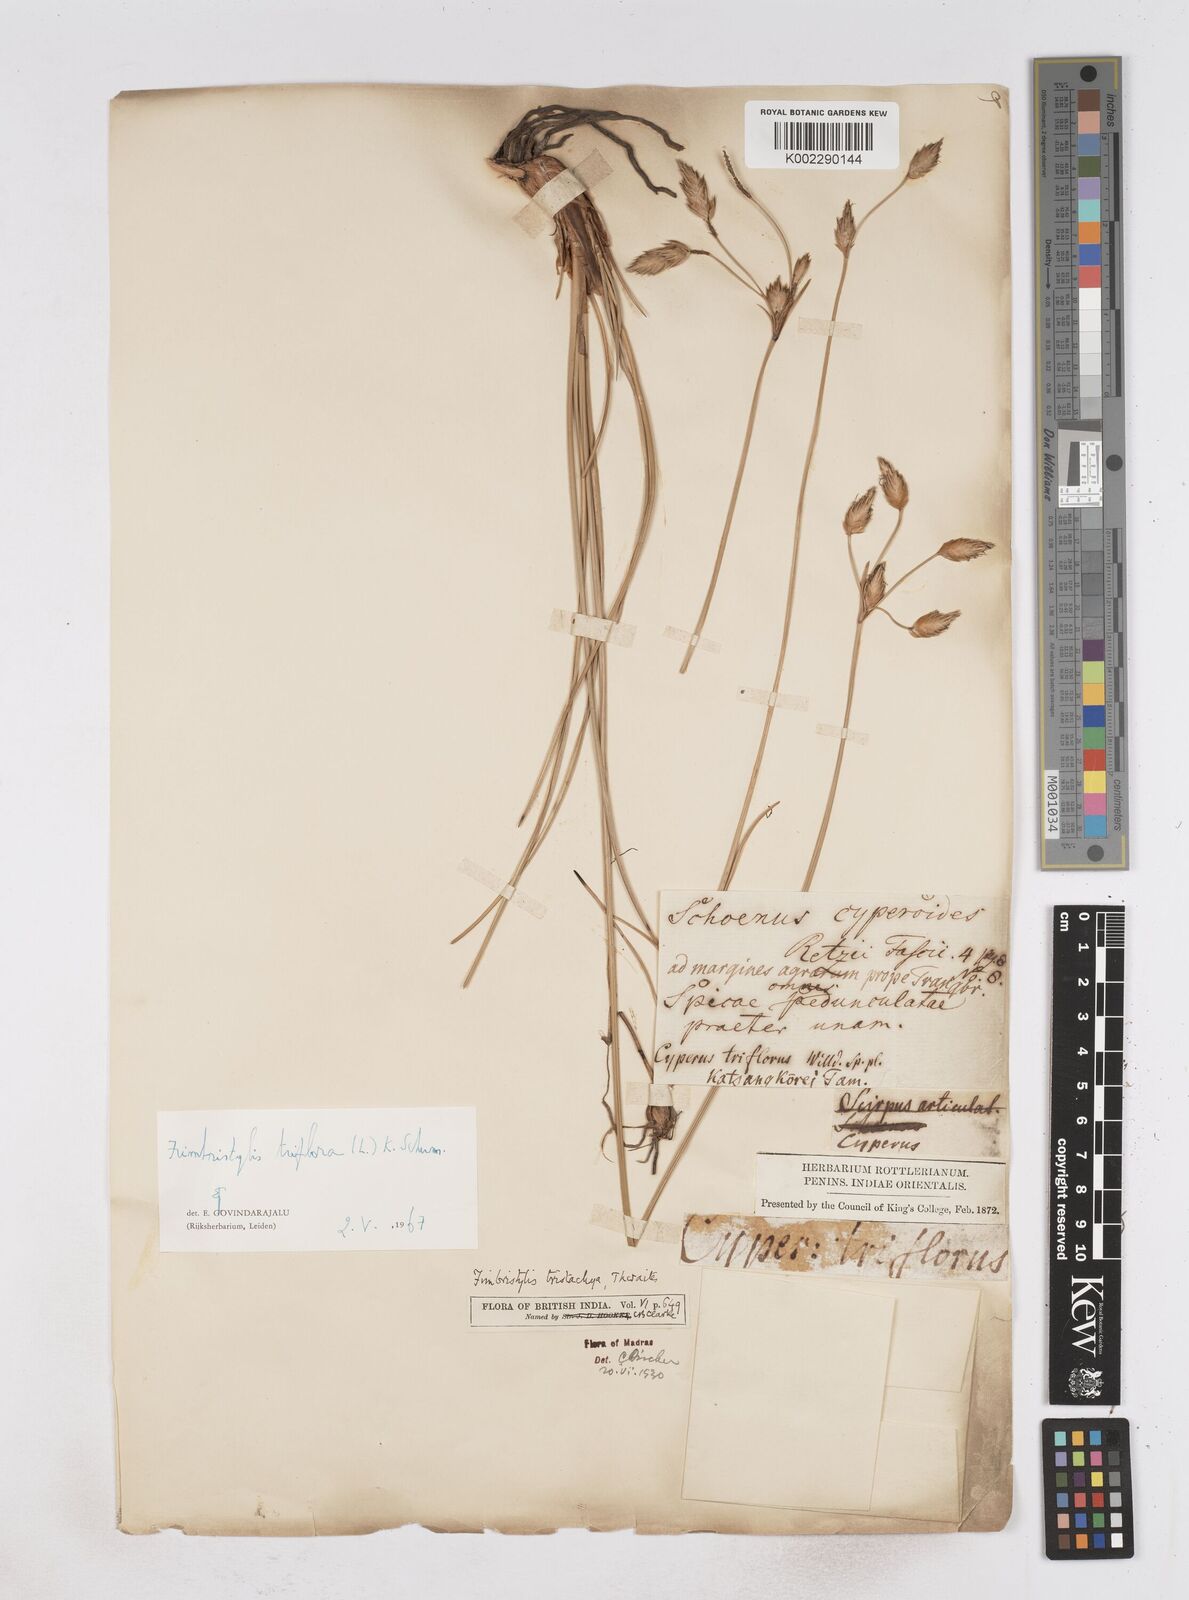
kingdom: Plantae
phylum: Tracheophyta
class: Liliopsida
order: Poales
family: Cyperaceae
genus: Abildgaardia
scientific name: Abildgaardia triflora
